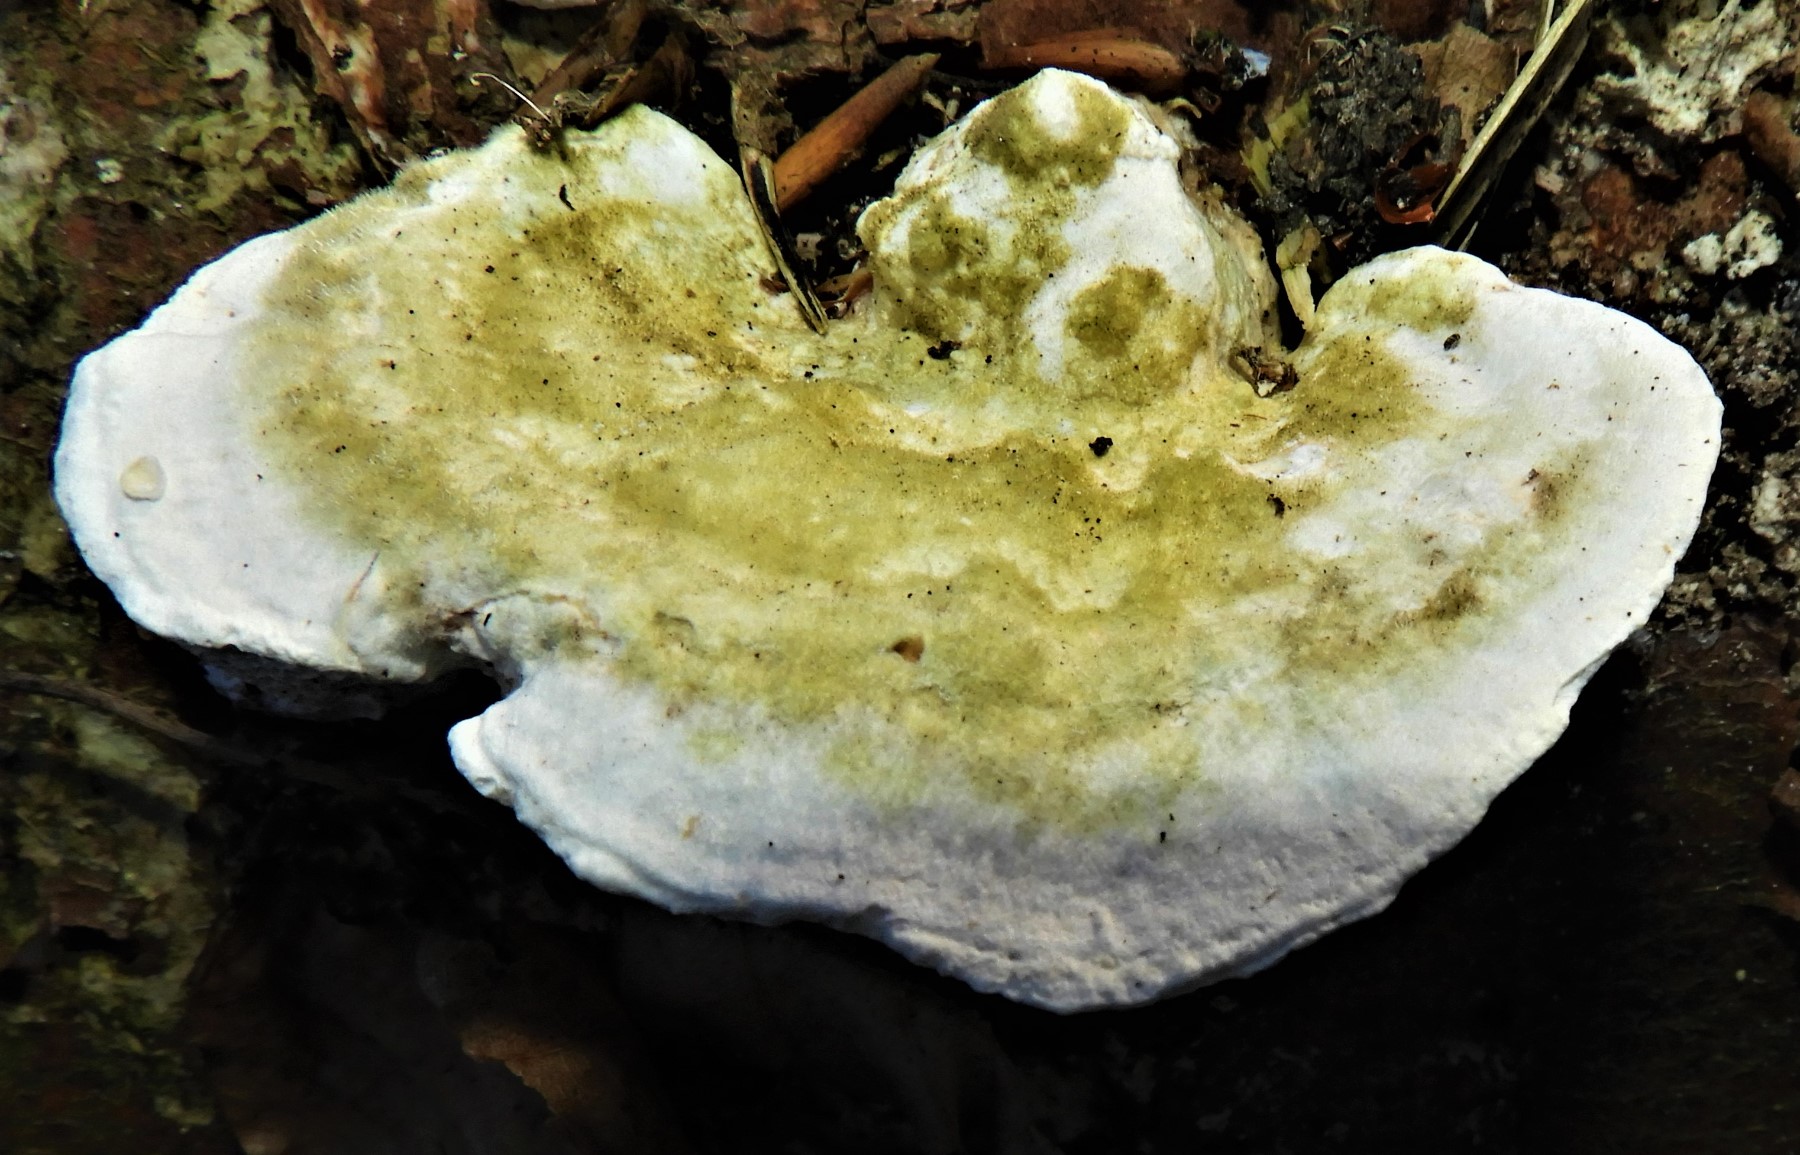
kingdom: Fungi
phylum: Basidiomycota
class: Agaricomycetes
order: Polyporales
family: Polyporaceae
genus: Trametes
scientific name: Trametes gibbosa
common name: puklet læderporesvamp
